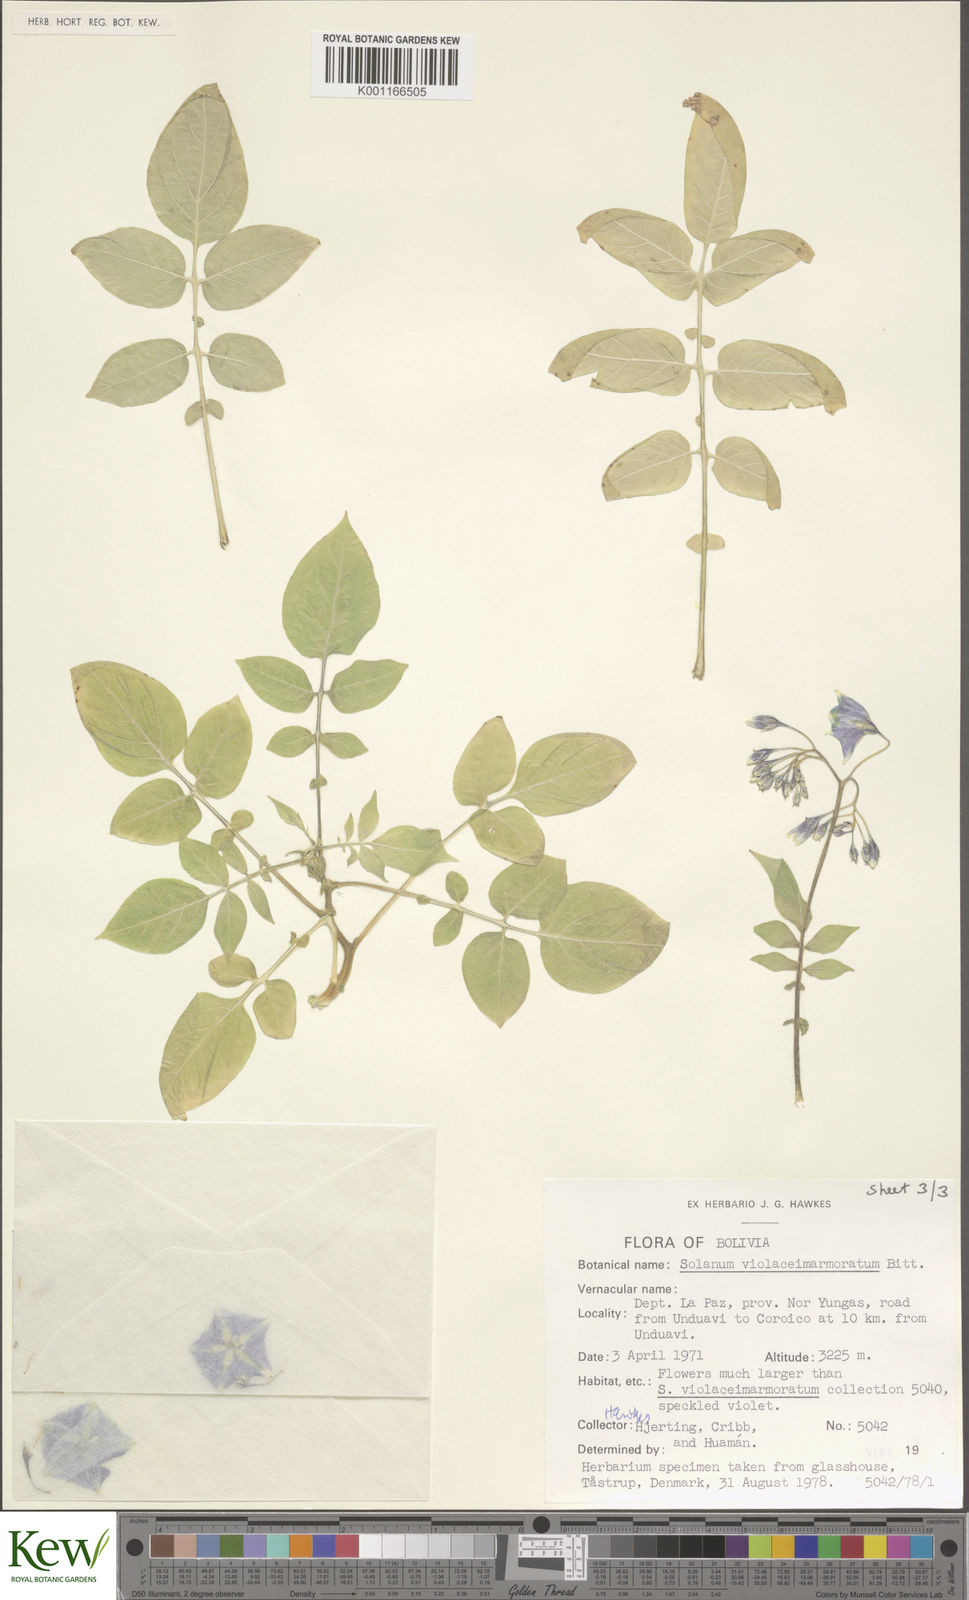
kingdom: Plantae
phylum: Tracheophyta
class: Magnoliopsida
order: Solanales
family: Solanaceae
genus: Solanum
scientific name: Solanum violaceimarmoratum
